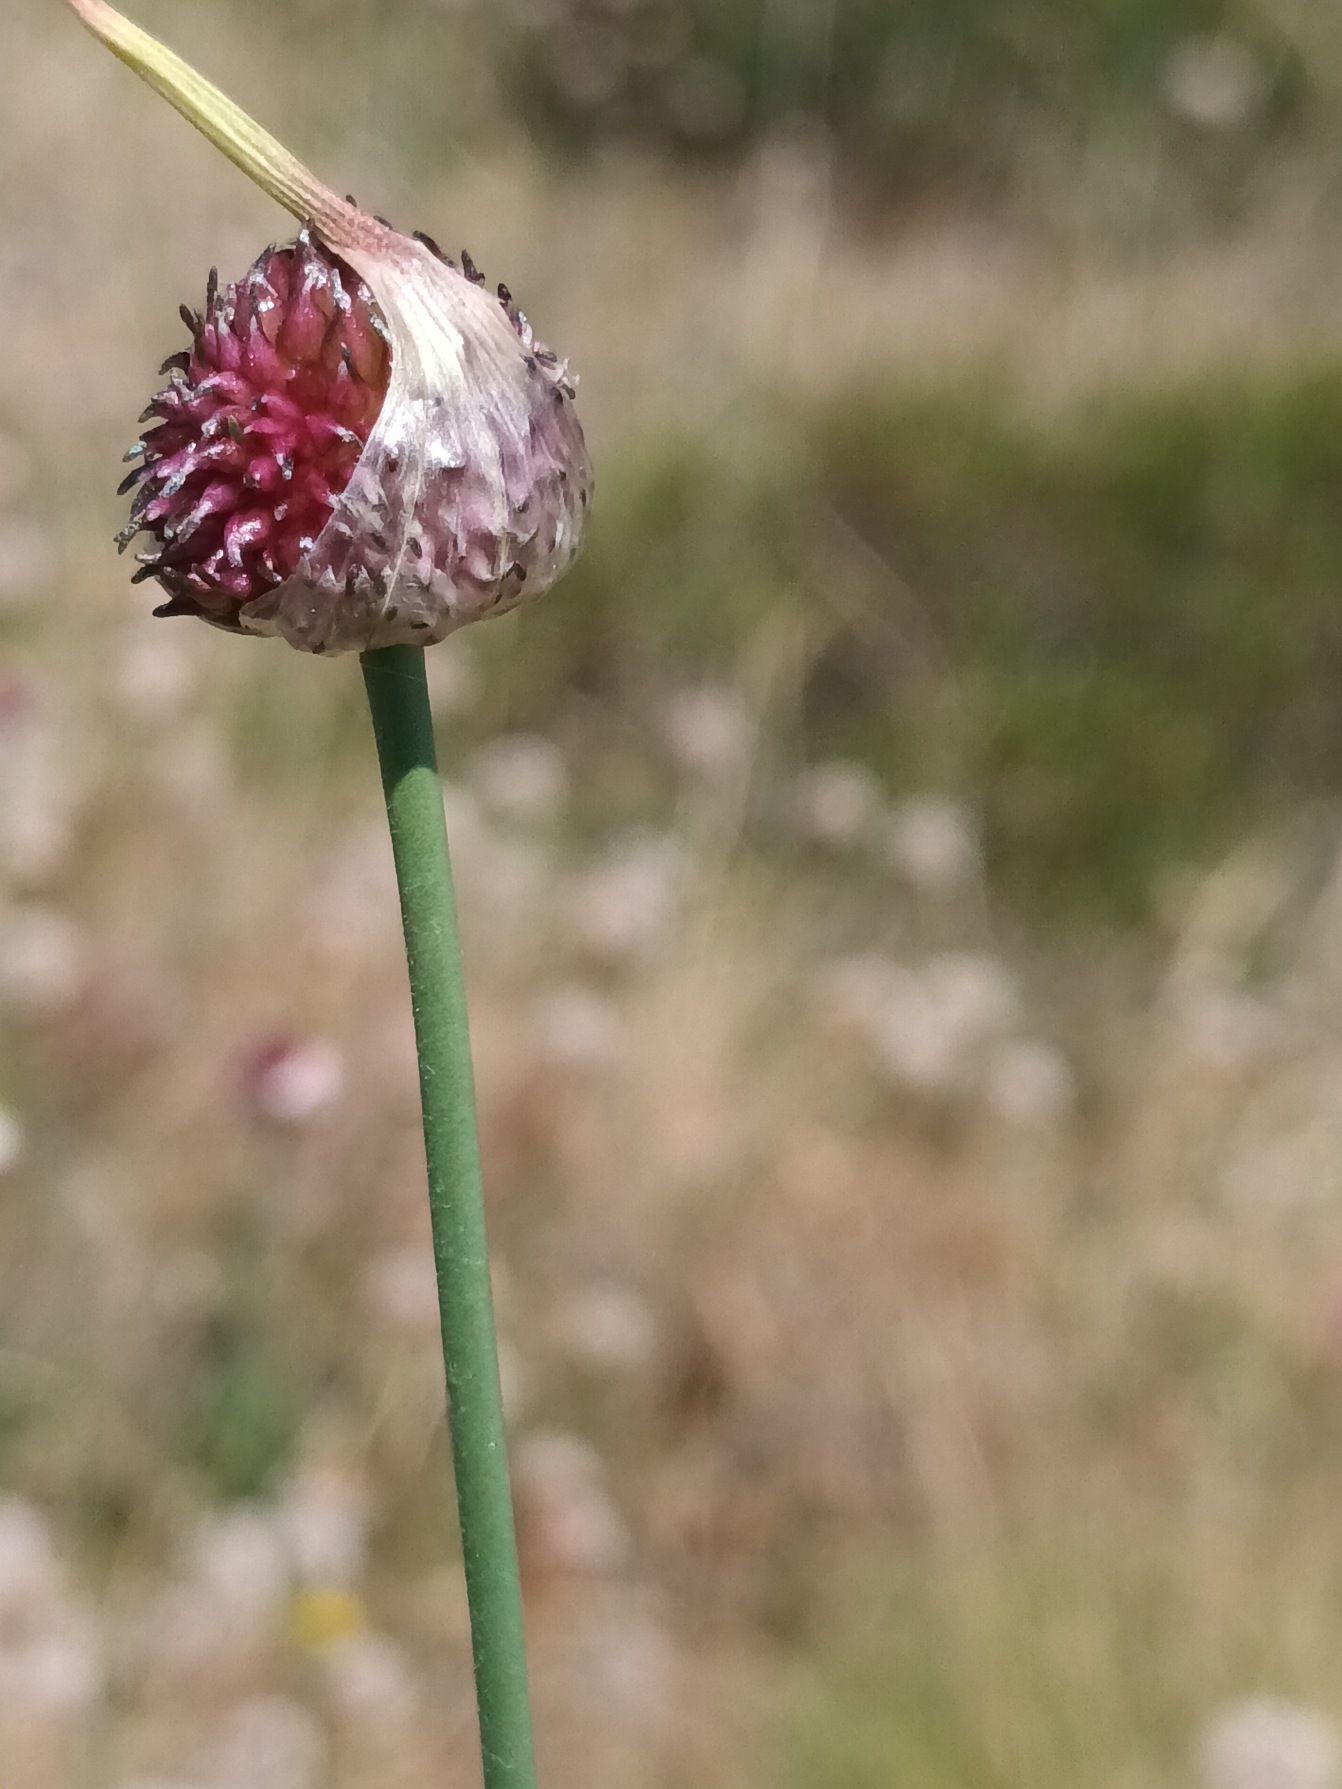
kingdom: Plantae
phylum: Tracheophyta
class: Liliopsida
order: Asparagales
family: Amaryllidaceae
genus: Allium
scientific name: Allium vineale
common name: Sand-løg
